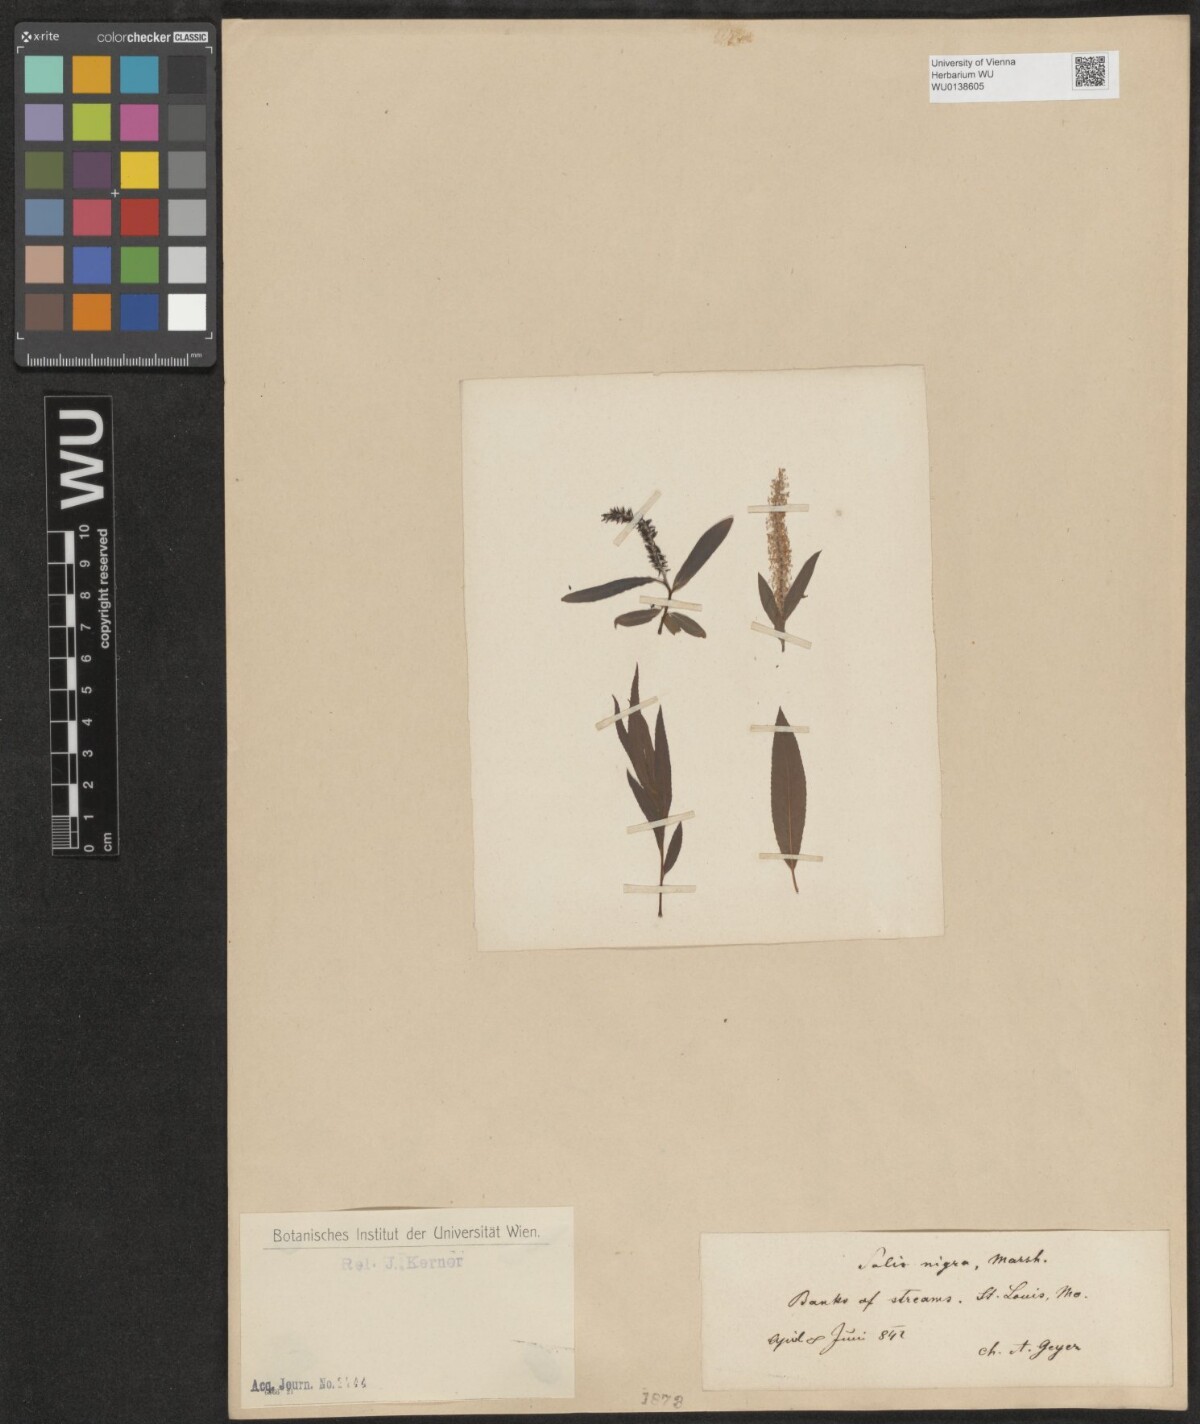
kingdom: Plantae
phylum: Tracheophyta
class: Magnoliopsida
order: Malpighiales
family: Salicaceae
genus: Salix
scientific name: Salix nigra
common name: Black willow
